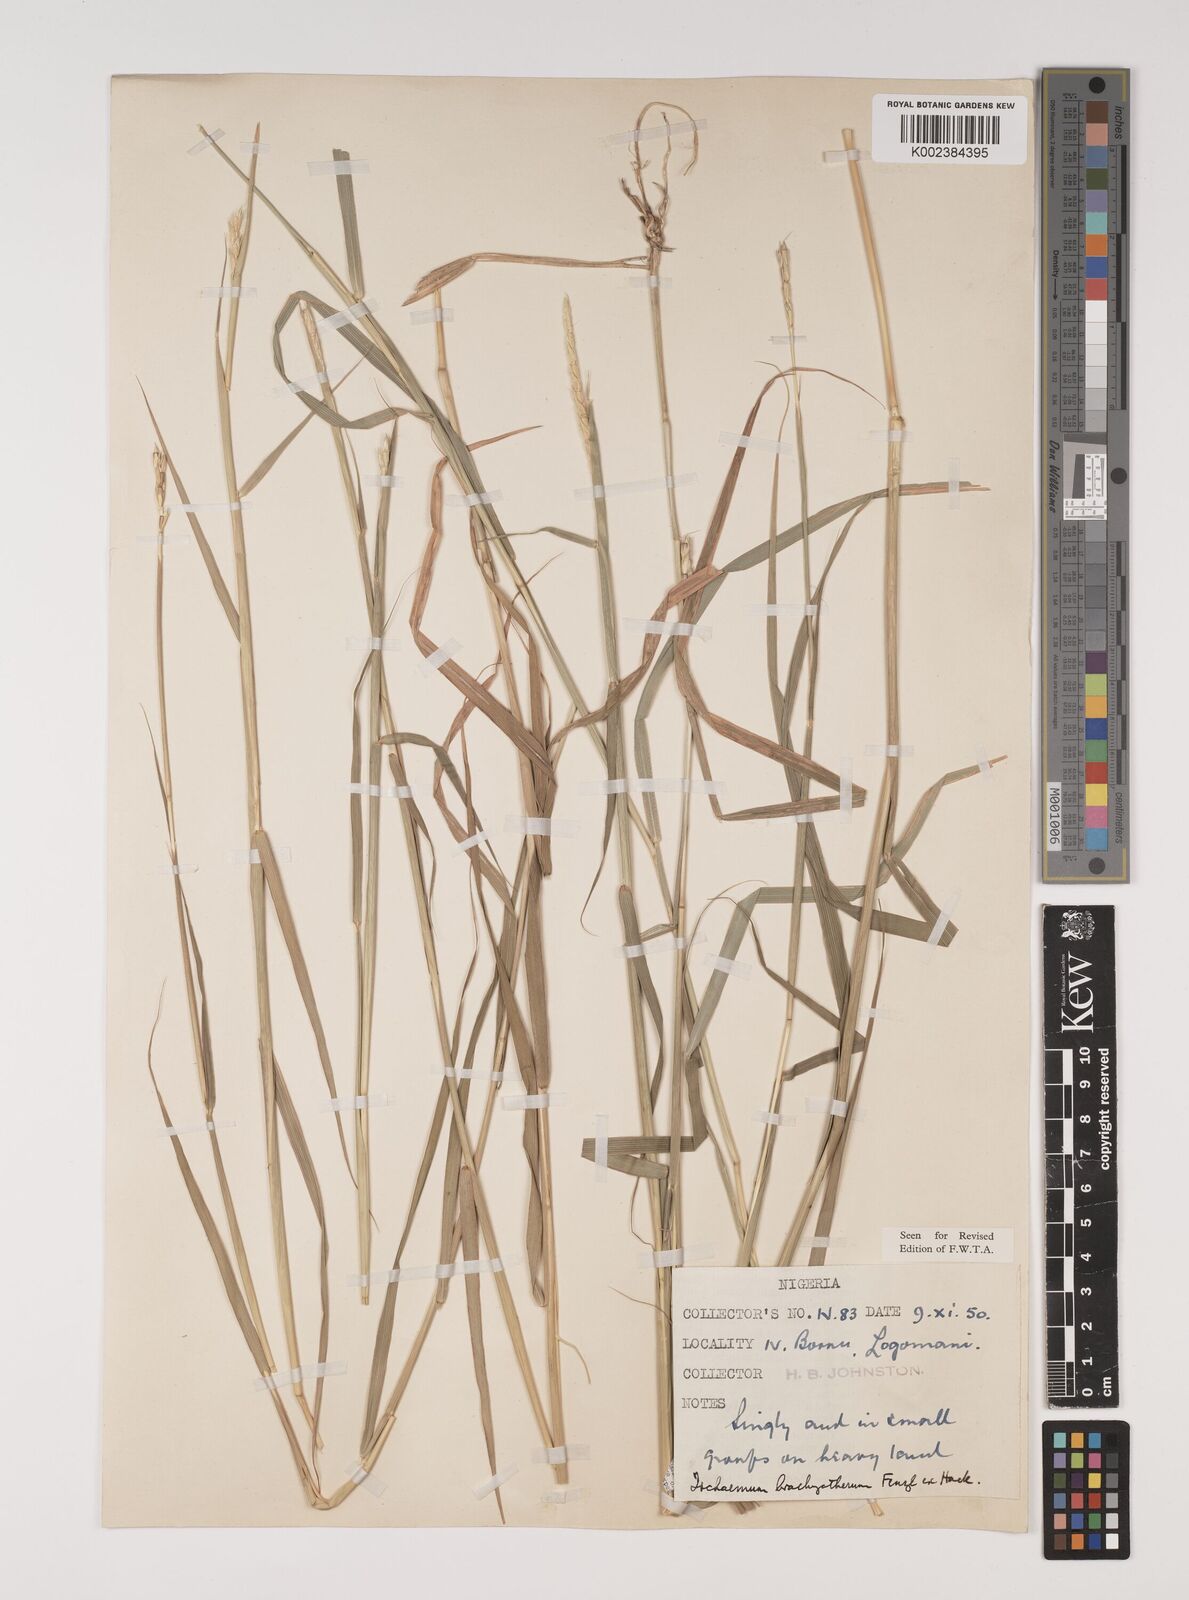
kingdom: Plantae
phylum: Tracheophyta
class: Liliopsida
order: Poales
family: Poaceae
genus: Ischaemum
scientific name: Ischaemum afrum
